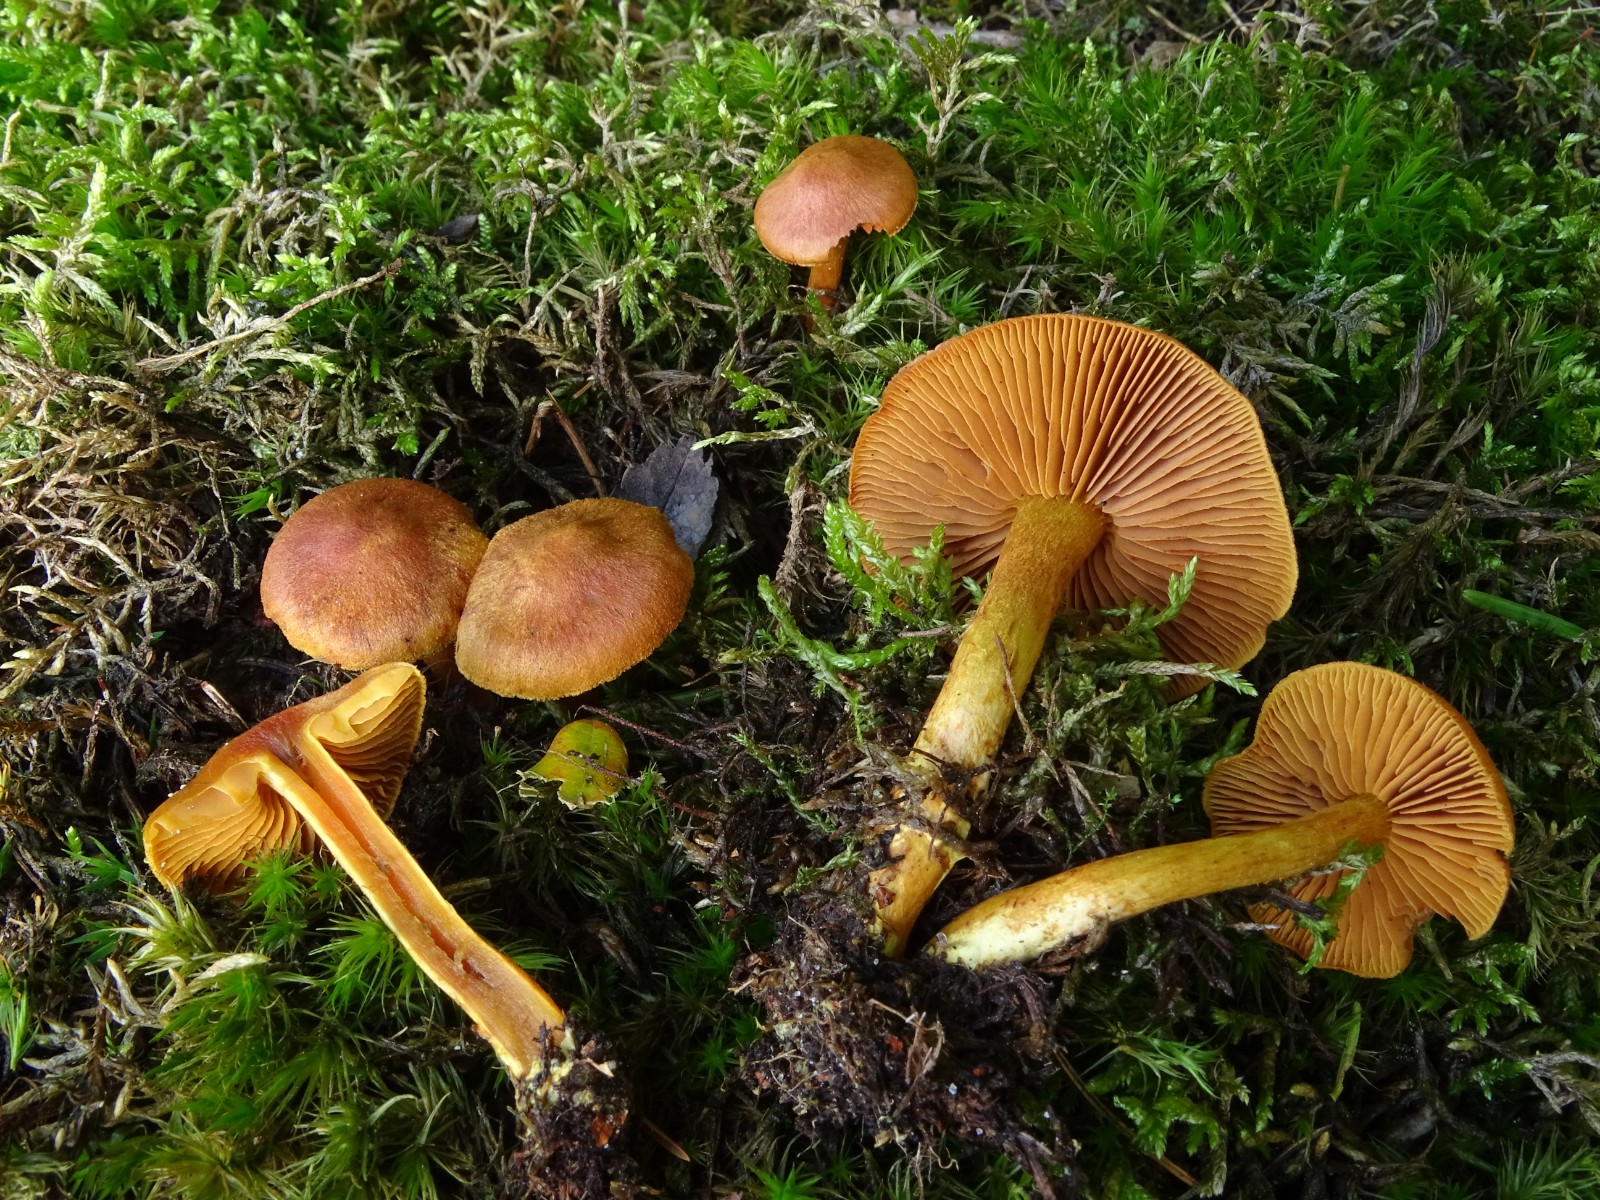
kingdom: Fungi
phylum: Basidiomycota
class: Agaricomycetes
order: Agaricales
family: Cortinariaceae
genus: Cortinarius
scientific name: Cortinarius cinnamomeus
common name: kanel-slørhat
